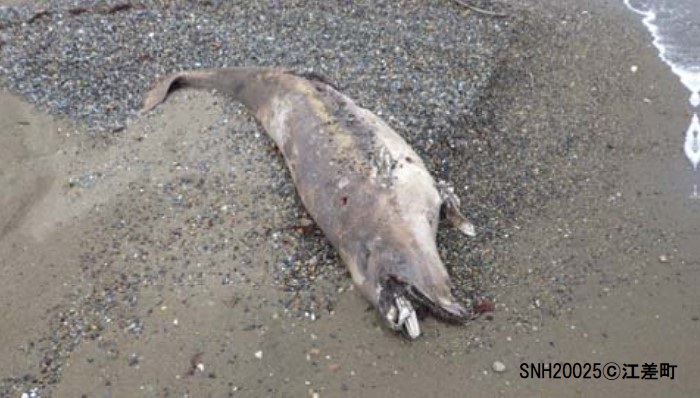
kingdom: Animalia
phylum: Chordata
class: Mammalia
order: Cetacea
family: Phocoenidae
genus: Phocoena
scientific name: Phocoena phocoena
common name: Harbour porpoise
